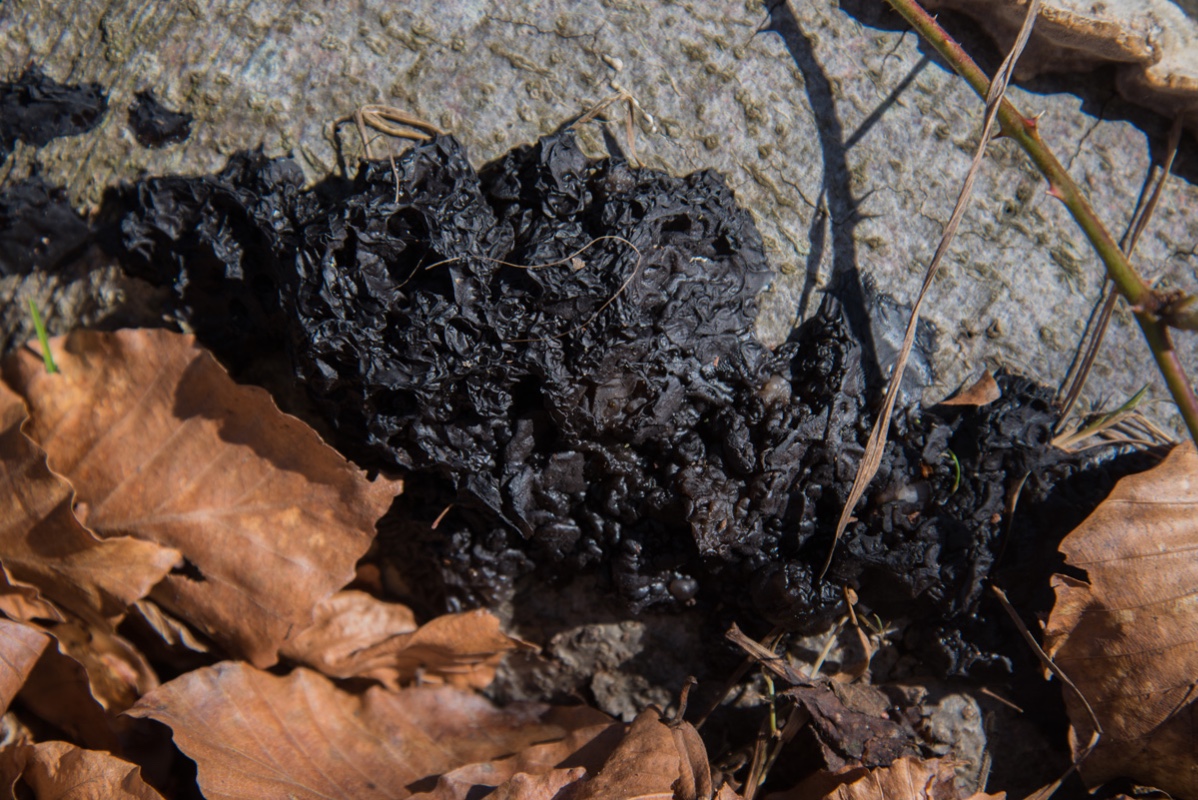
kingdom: Fungi
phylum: Basidiomycota
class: Agaricomycetes
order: Auriculariales
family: Auriculariaceae
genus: Exidia
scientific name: Exidia nigricans
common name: almindelig bævretop
